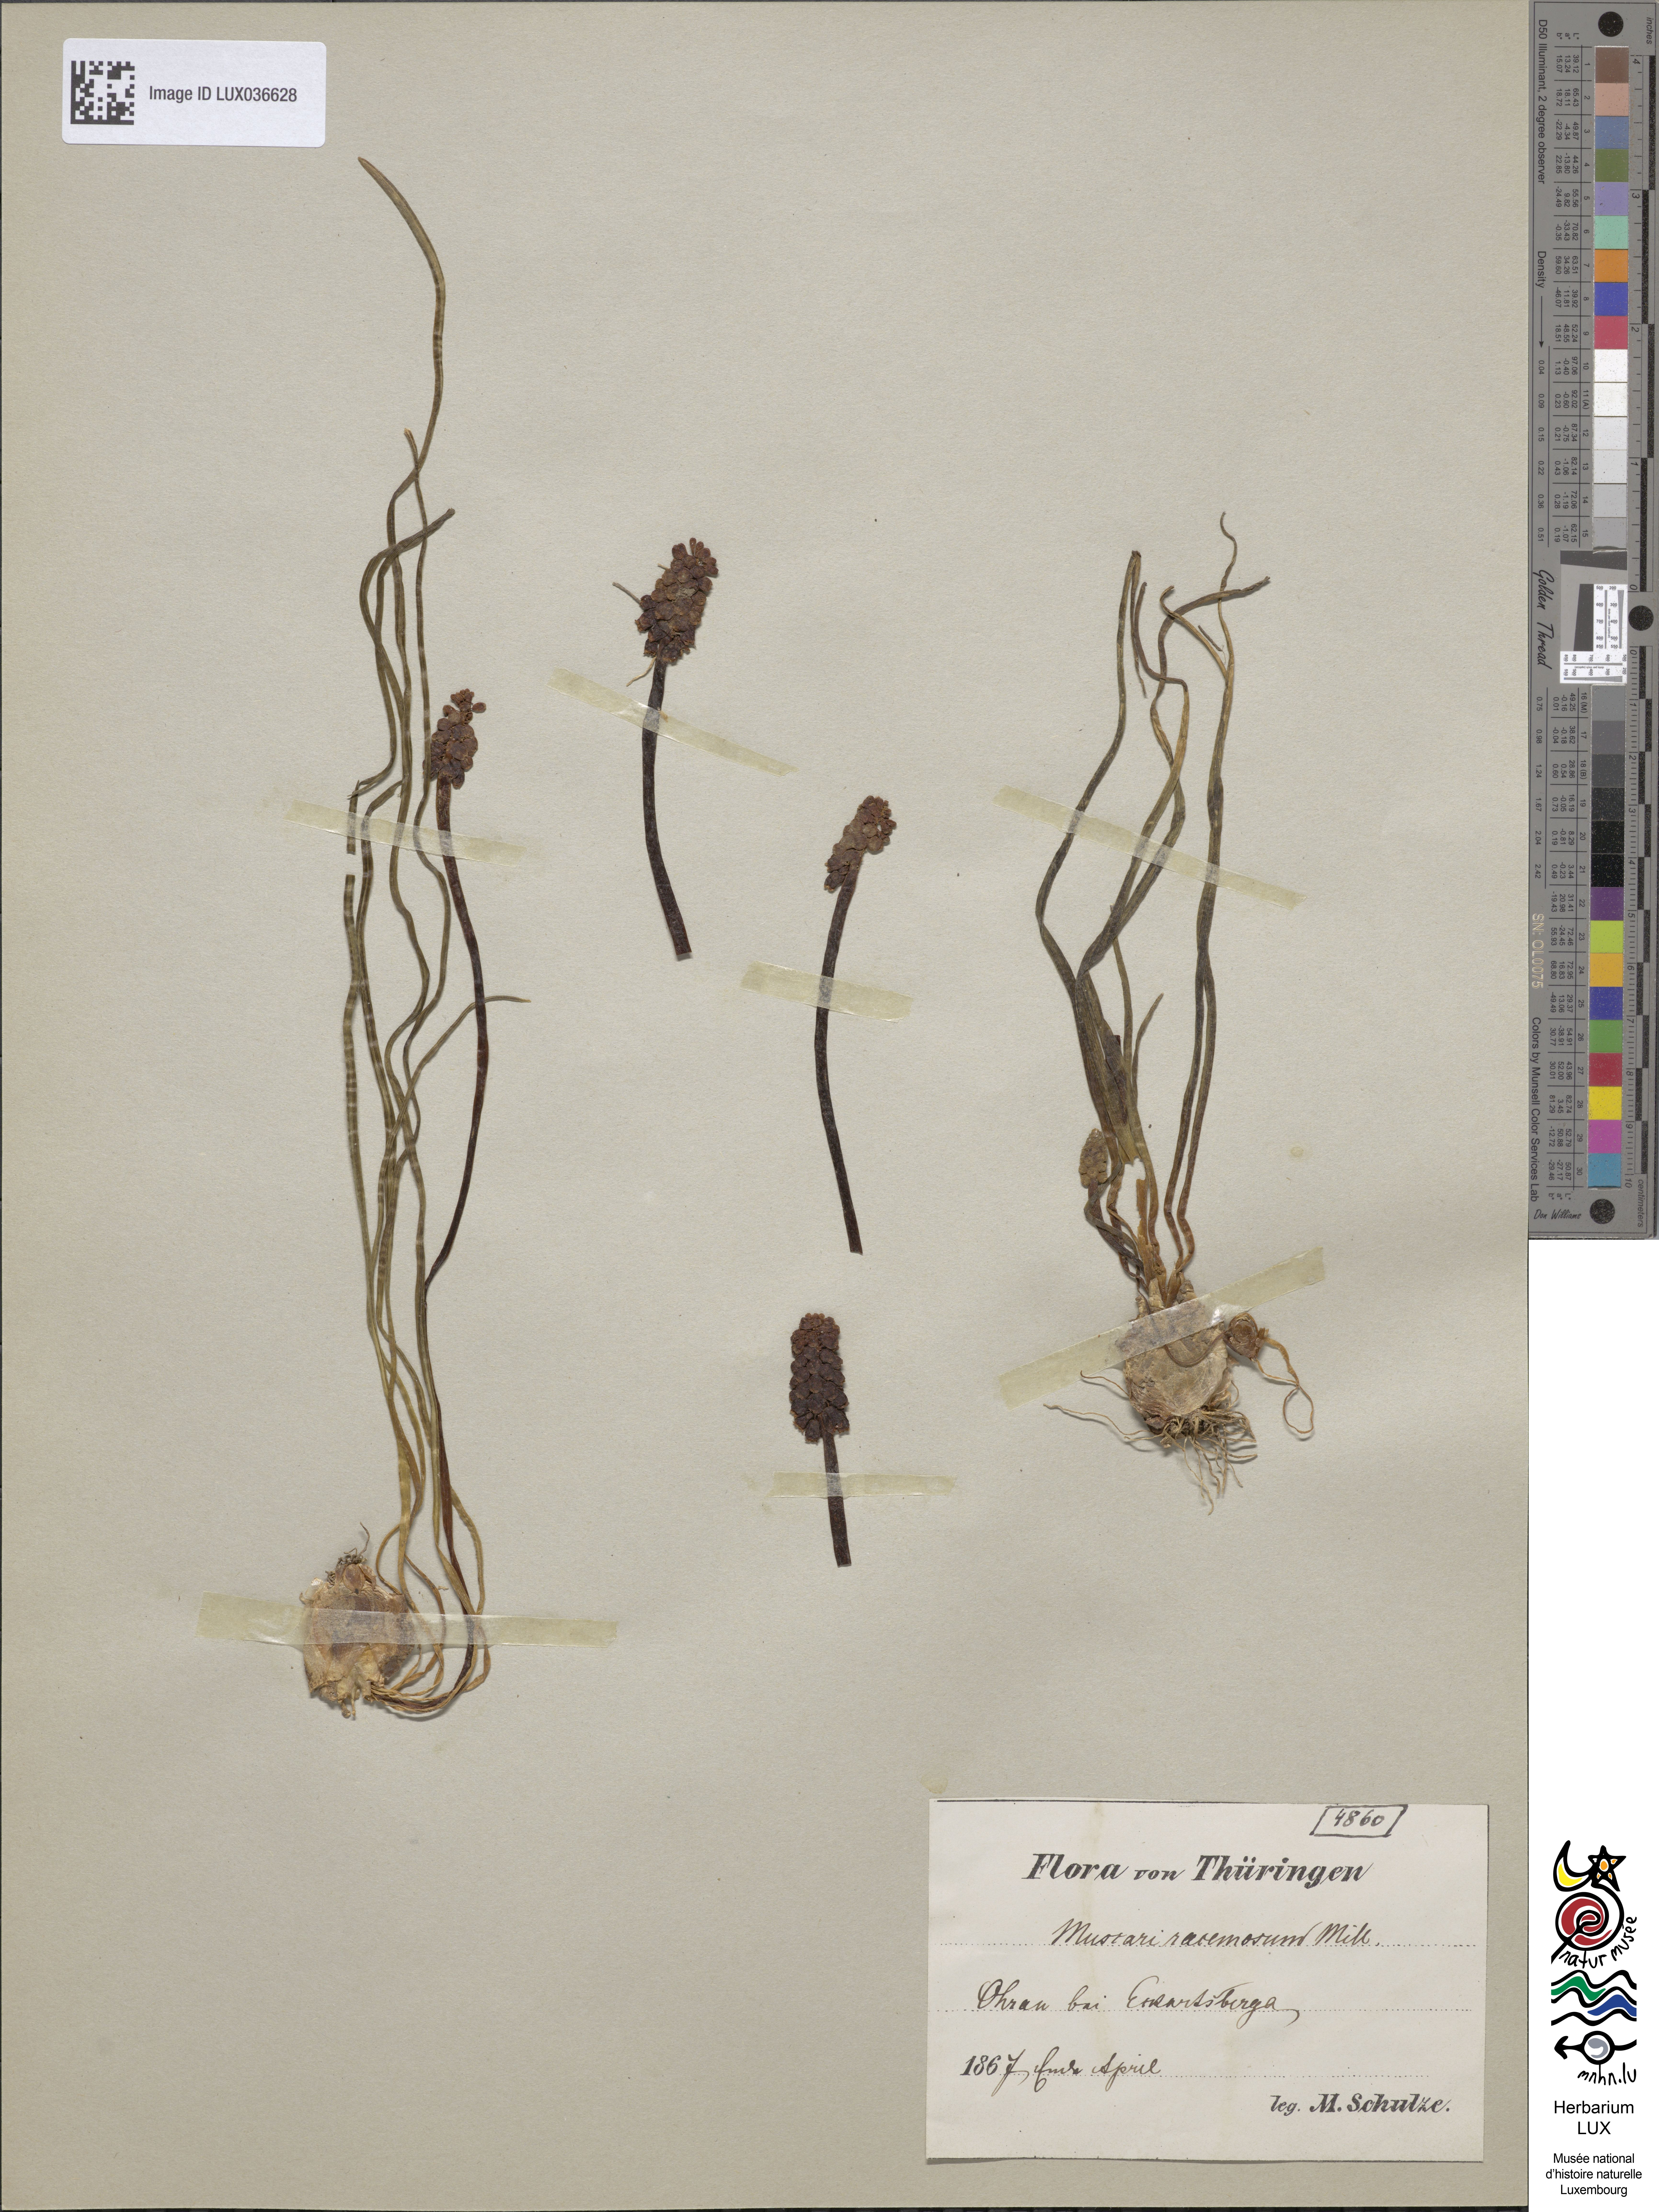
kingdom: Plantae
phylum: Tracheophyta
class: Liliopsida
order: Asparagales
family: Asparagaceae
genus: Muscari
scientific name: Muscari neglectum
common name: Grape-hyacinth
